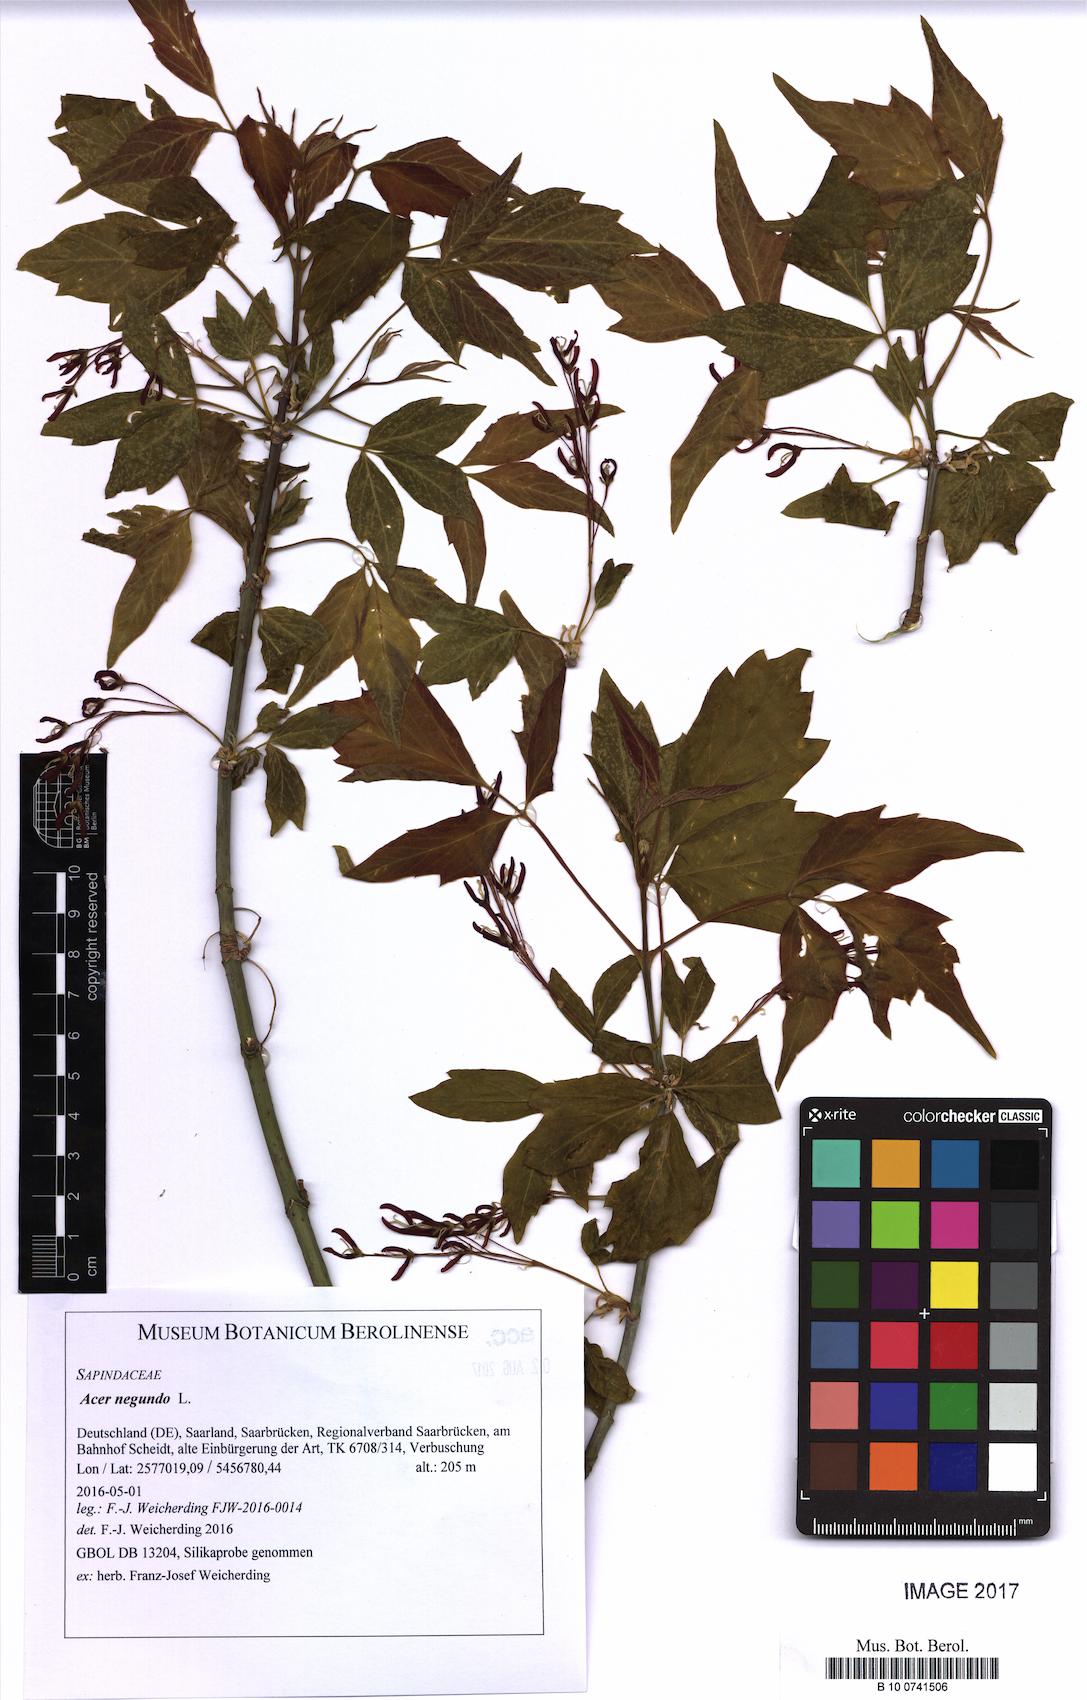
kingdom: Plantae
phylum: Tracheophyta
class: Magnoliopsida
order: Sapindales
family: Sapindaceae
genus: Acer
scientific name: Acer negundo
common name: Ashleaf maple
